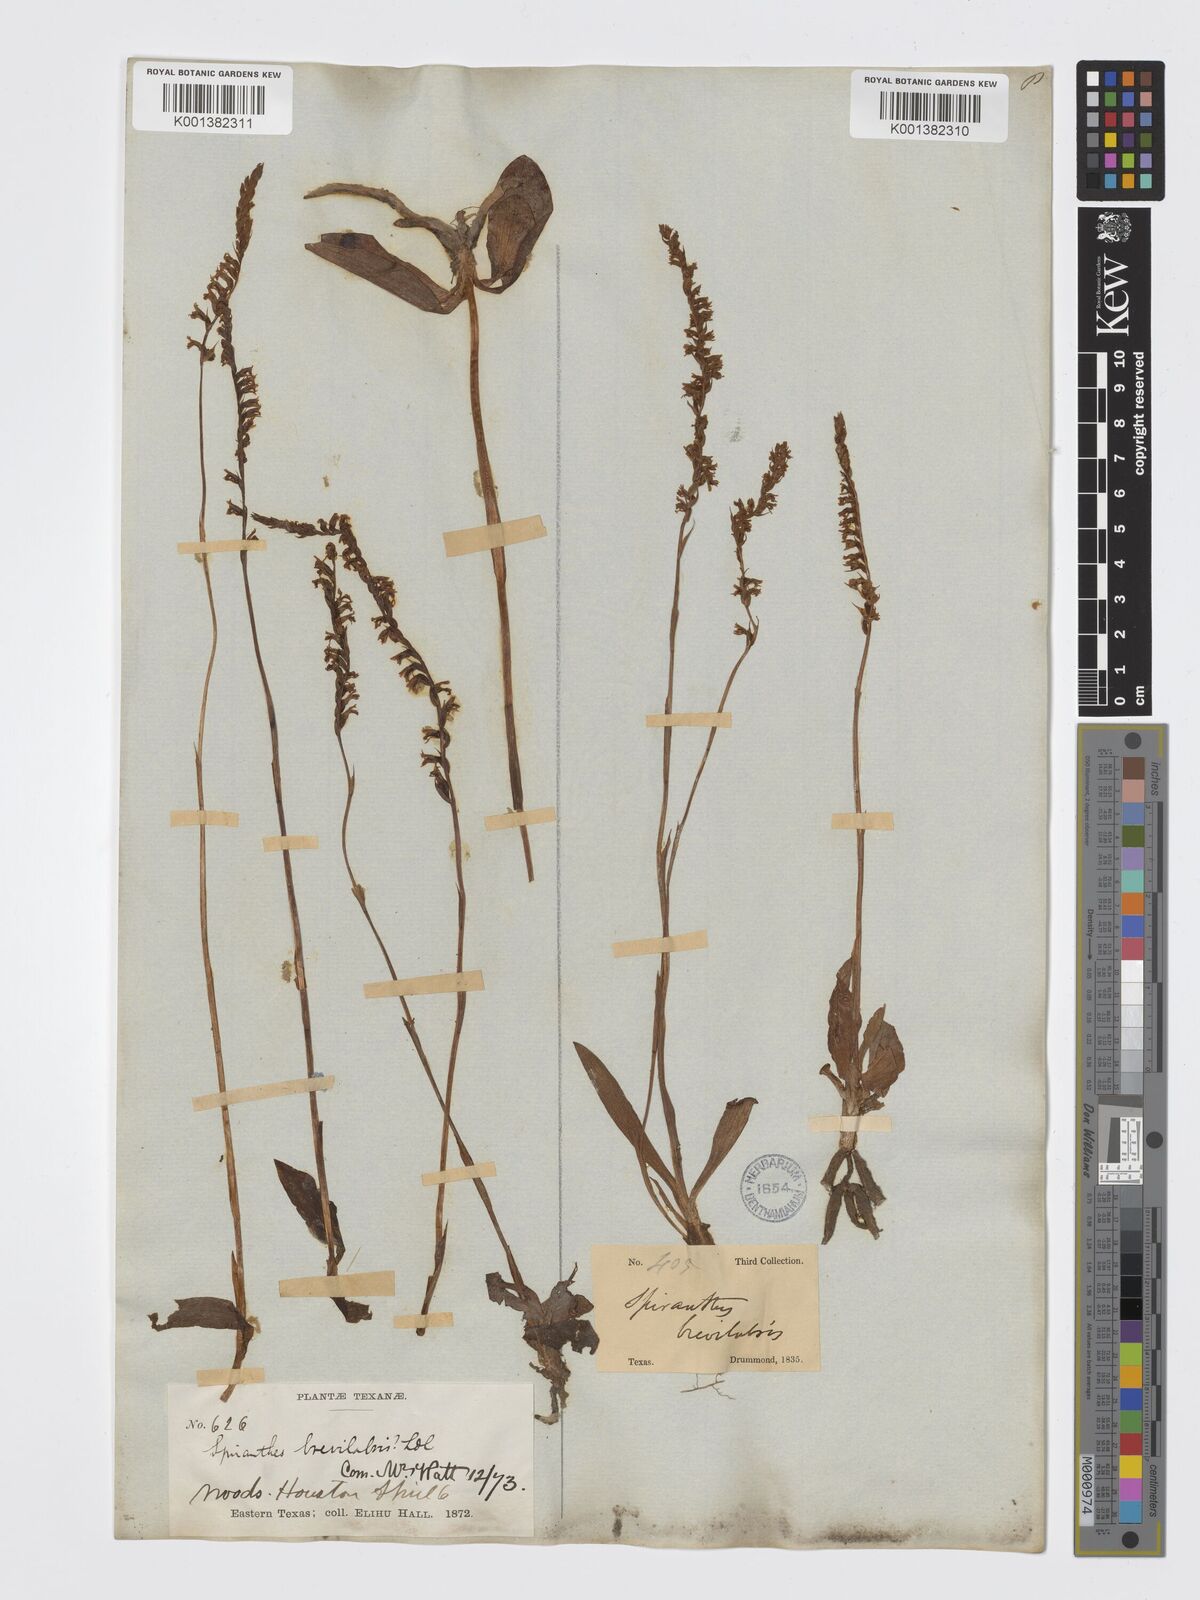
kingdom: Plantae
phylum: Tracheophyta
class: Liliopsida
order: Asparagales
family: Orchidaceae
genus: Spiranthes
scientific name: Spiranthes brevilabris
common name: Texas ladies'-tresses
